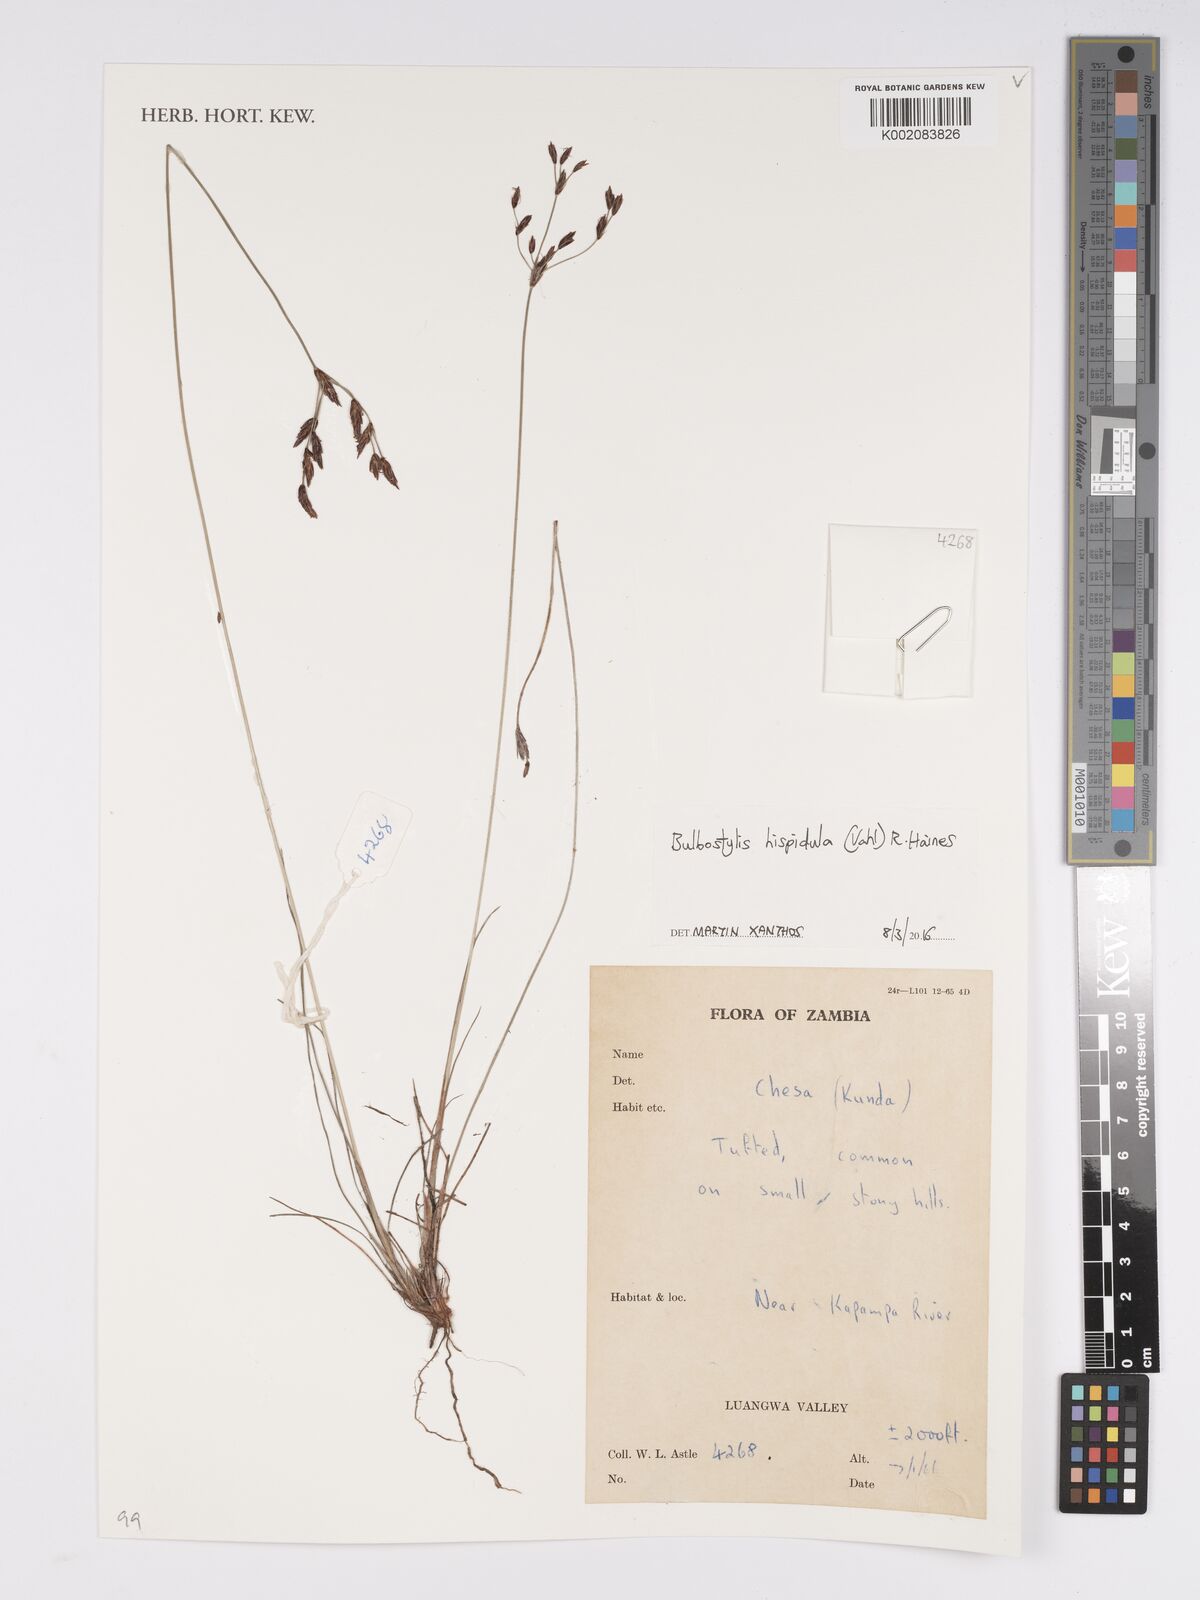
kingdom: Plantae
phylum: Tracheophyta
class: Liliopsida
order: Poales
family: Cyperaceae
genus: Bulbostylis
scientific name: Bulbostylis hispidula
